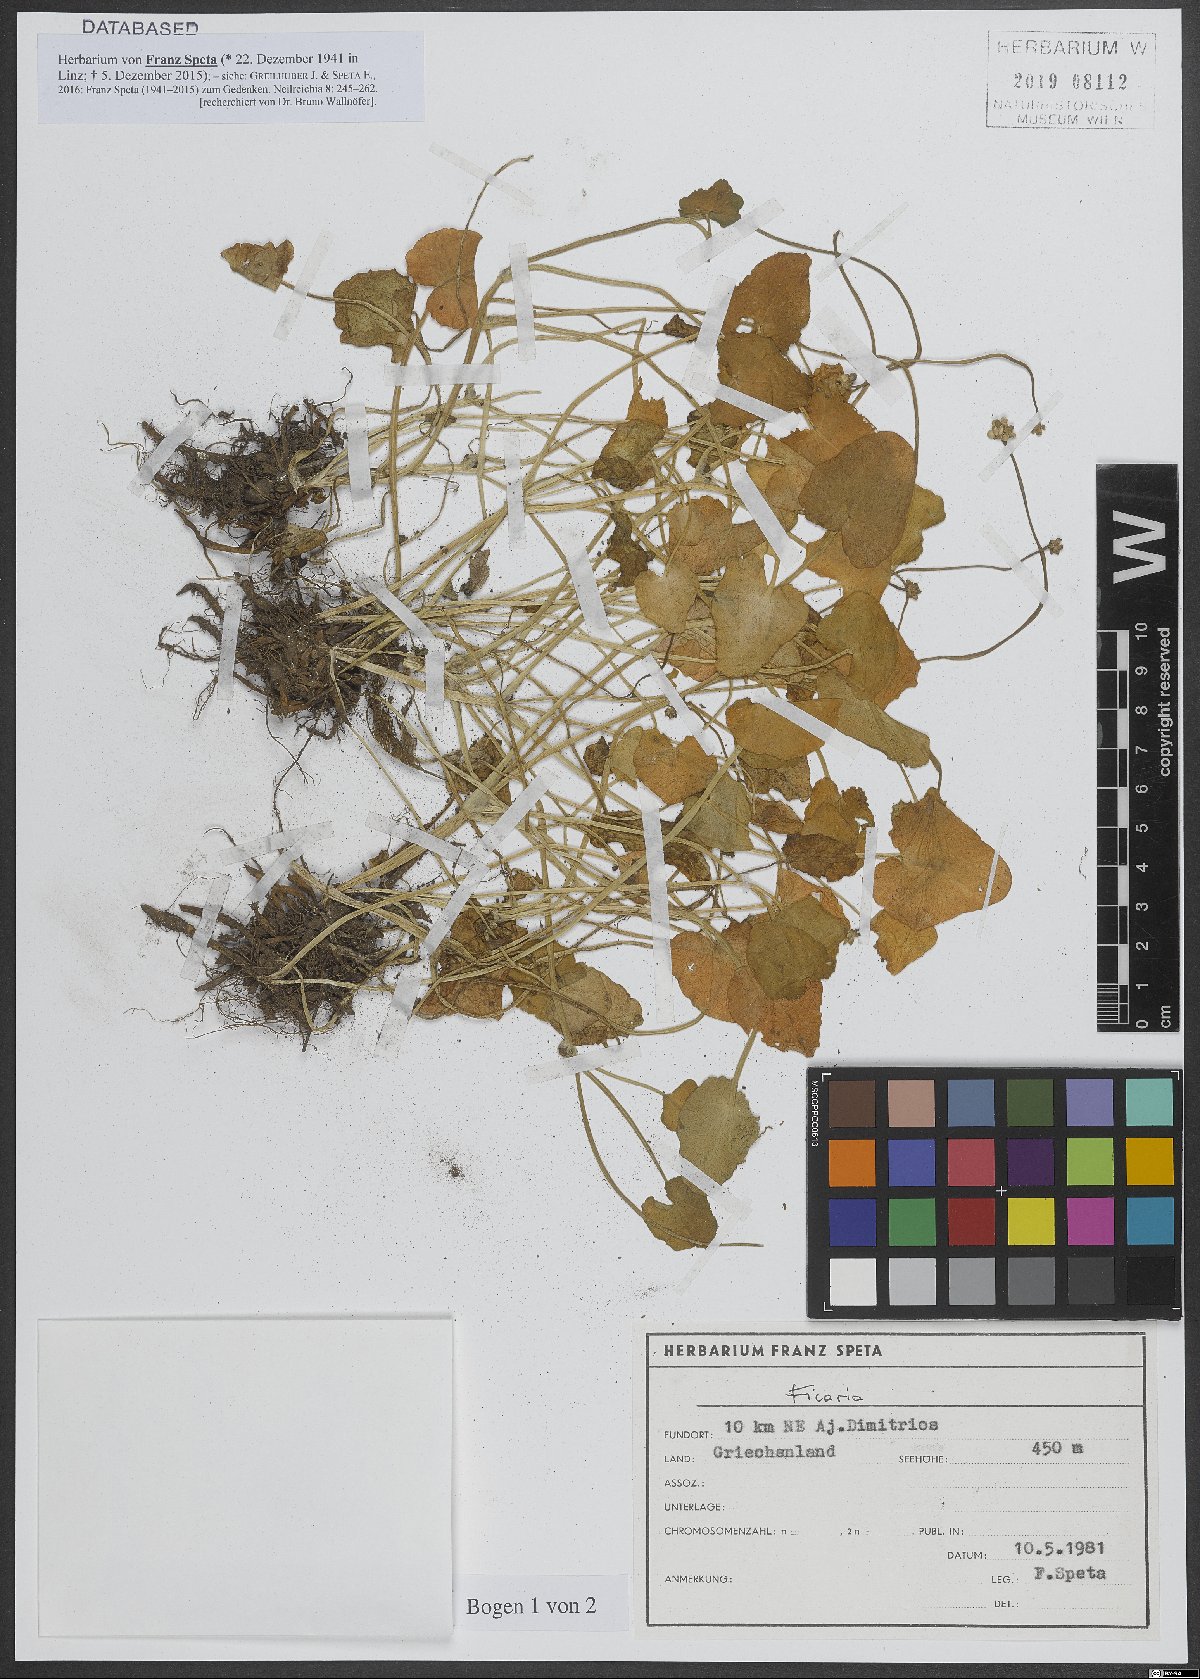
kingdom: Plantae
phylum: Tracheophyta
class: Magnoliopsida
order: Ranunculales
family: Ranunculaceae
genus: Ficaria
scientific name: Ficaria
